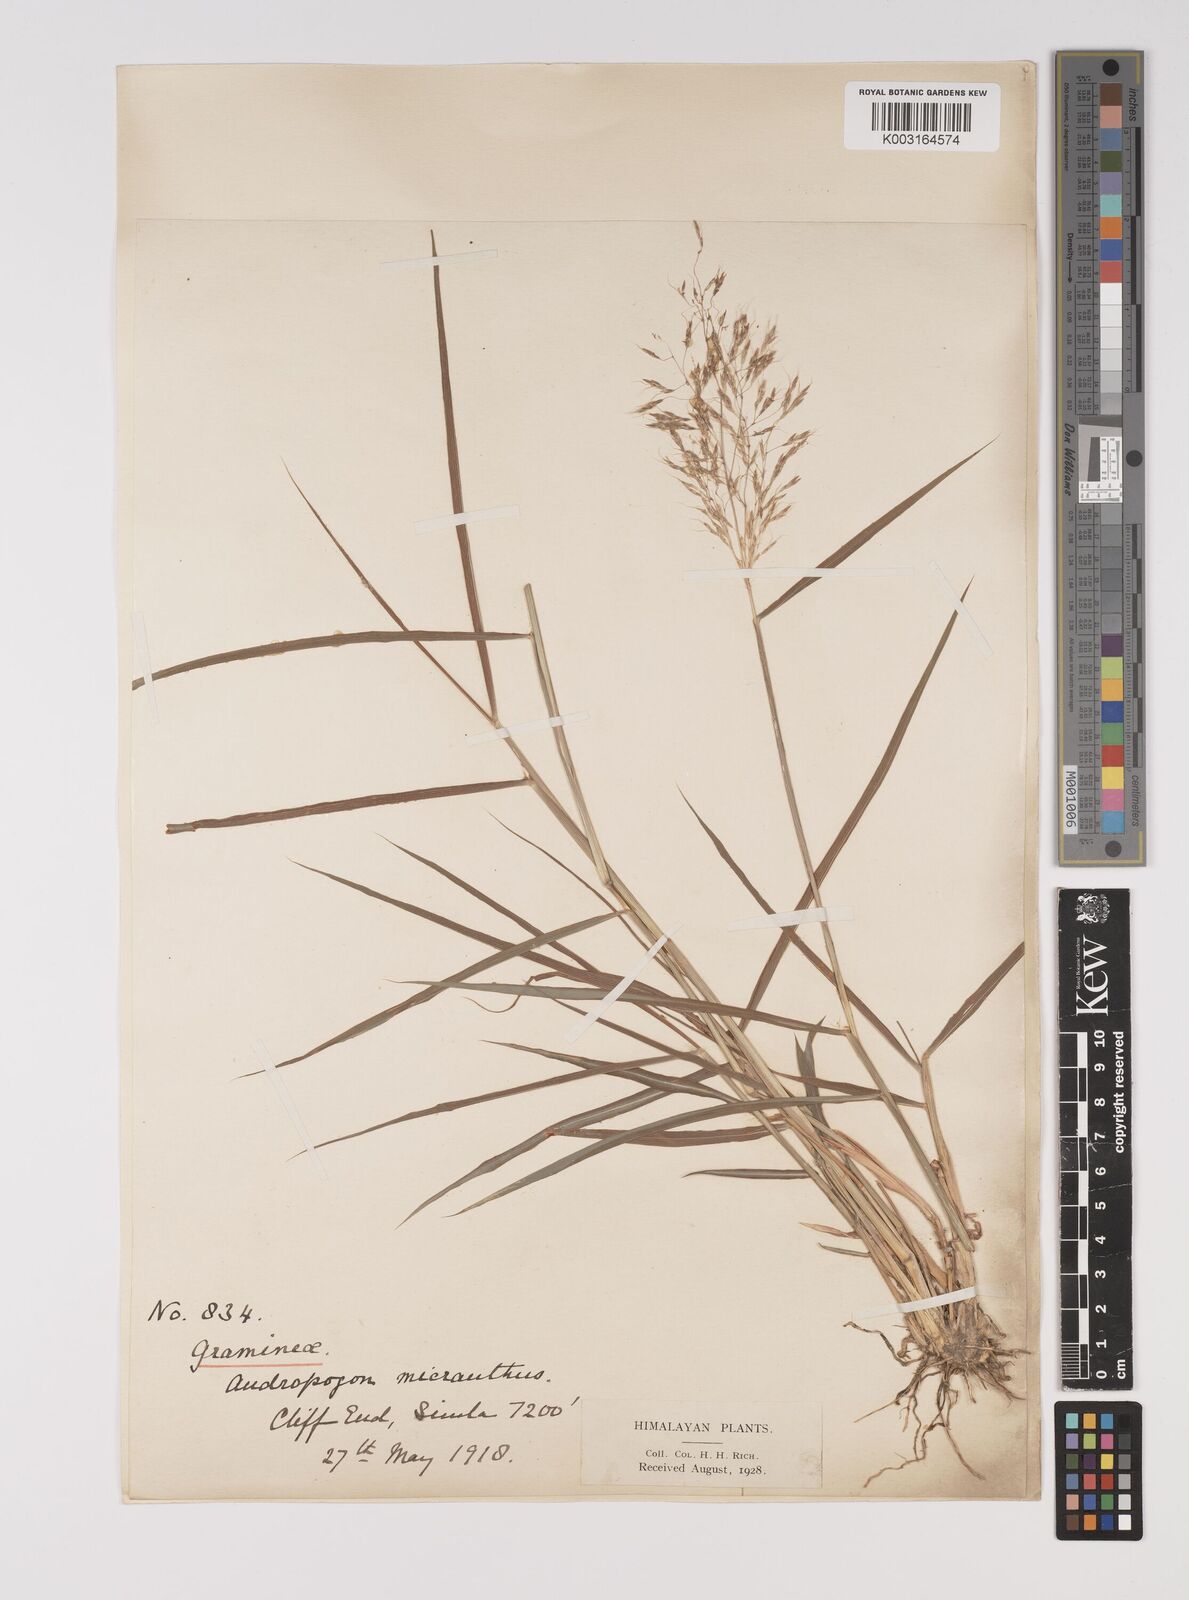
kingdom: Plantae
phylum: Tracheophyta
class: Liliopsida
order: Poales
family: Poaceae
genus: Capillipedium
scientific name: Capillipedium spicigerum
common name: Scented-top grass
